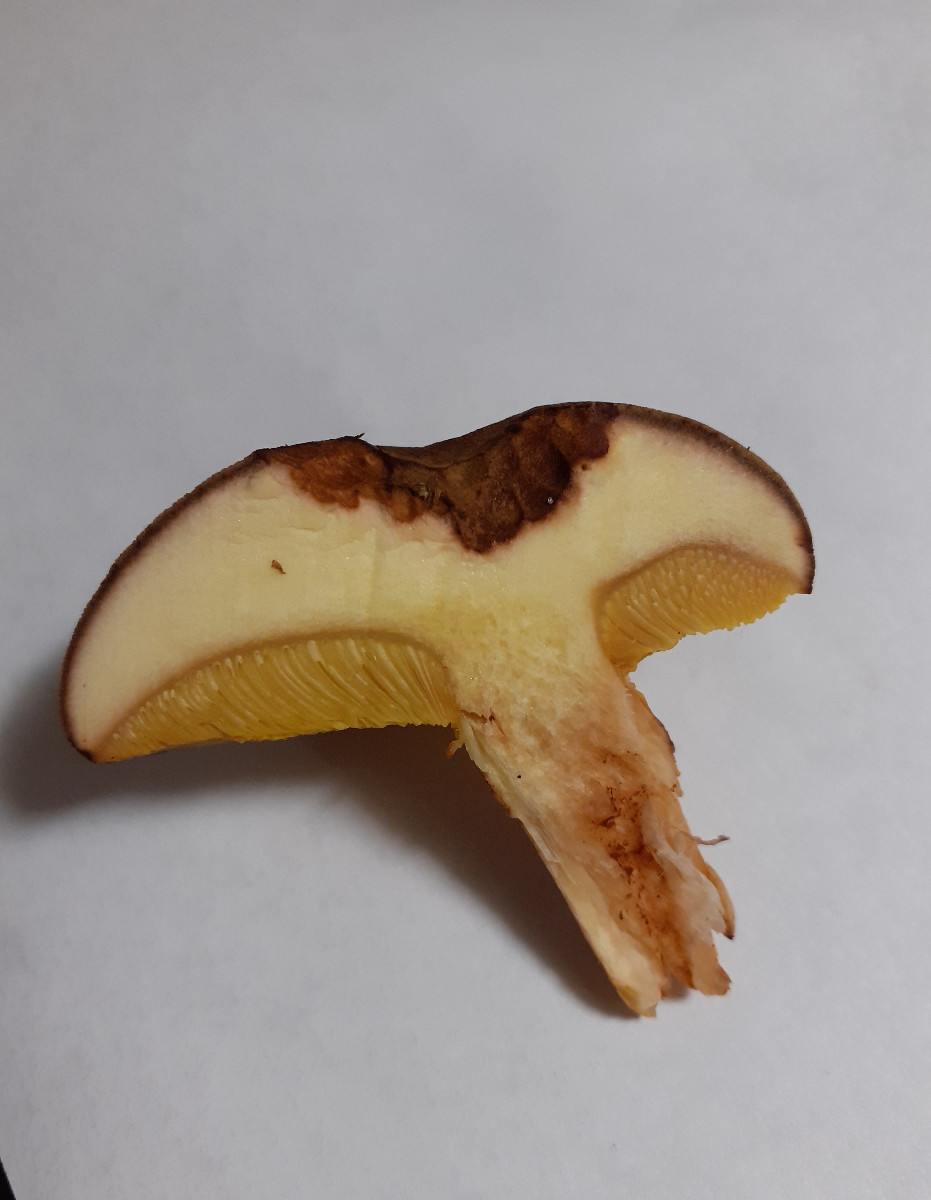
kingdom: Fungi
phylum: Basidiomycota
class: Agaricomycetes
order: Boletales
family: Boletaceae
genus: Xerocomus
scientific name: Xerocomus subtomentosus
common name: filtet rørhat
